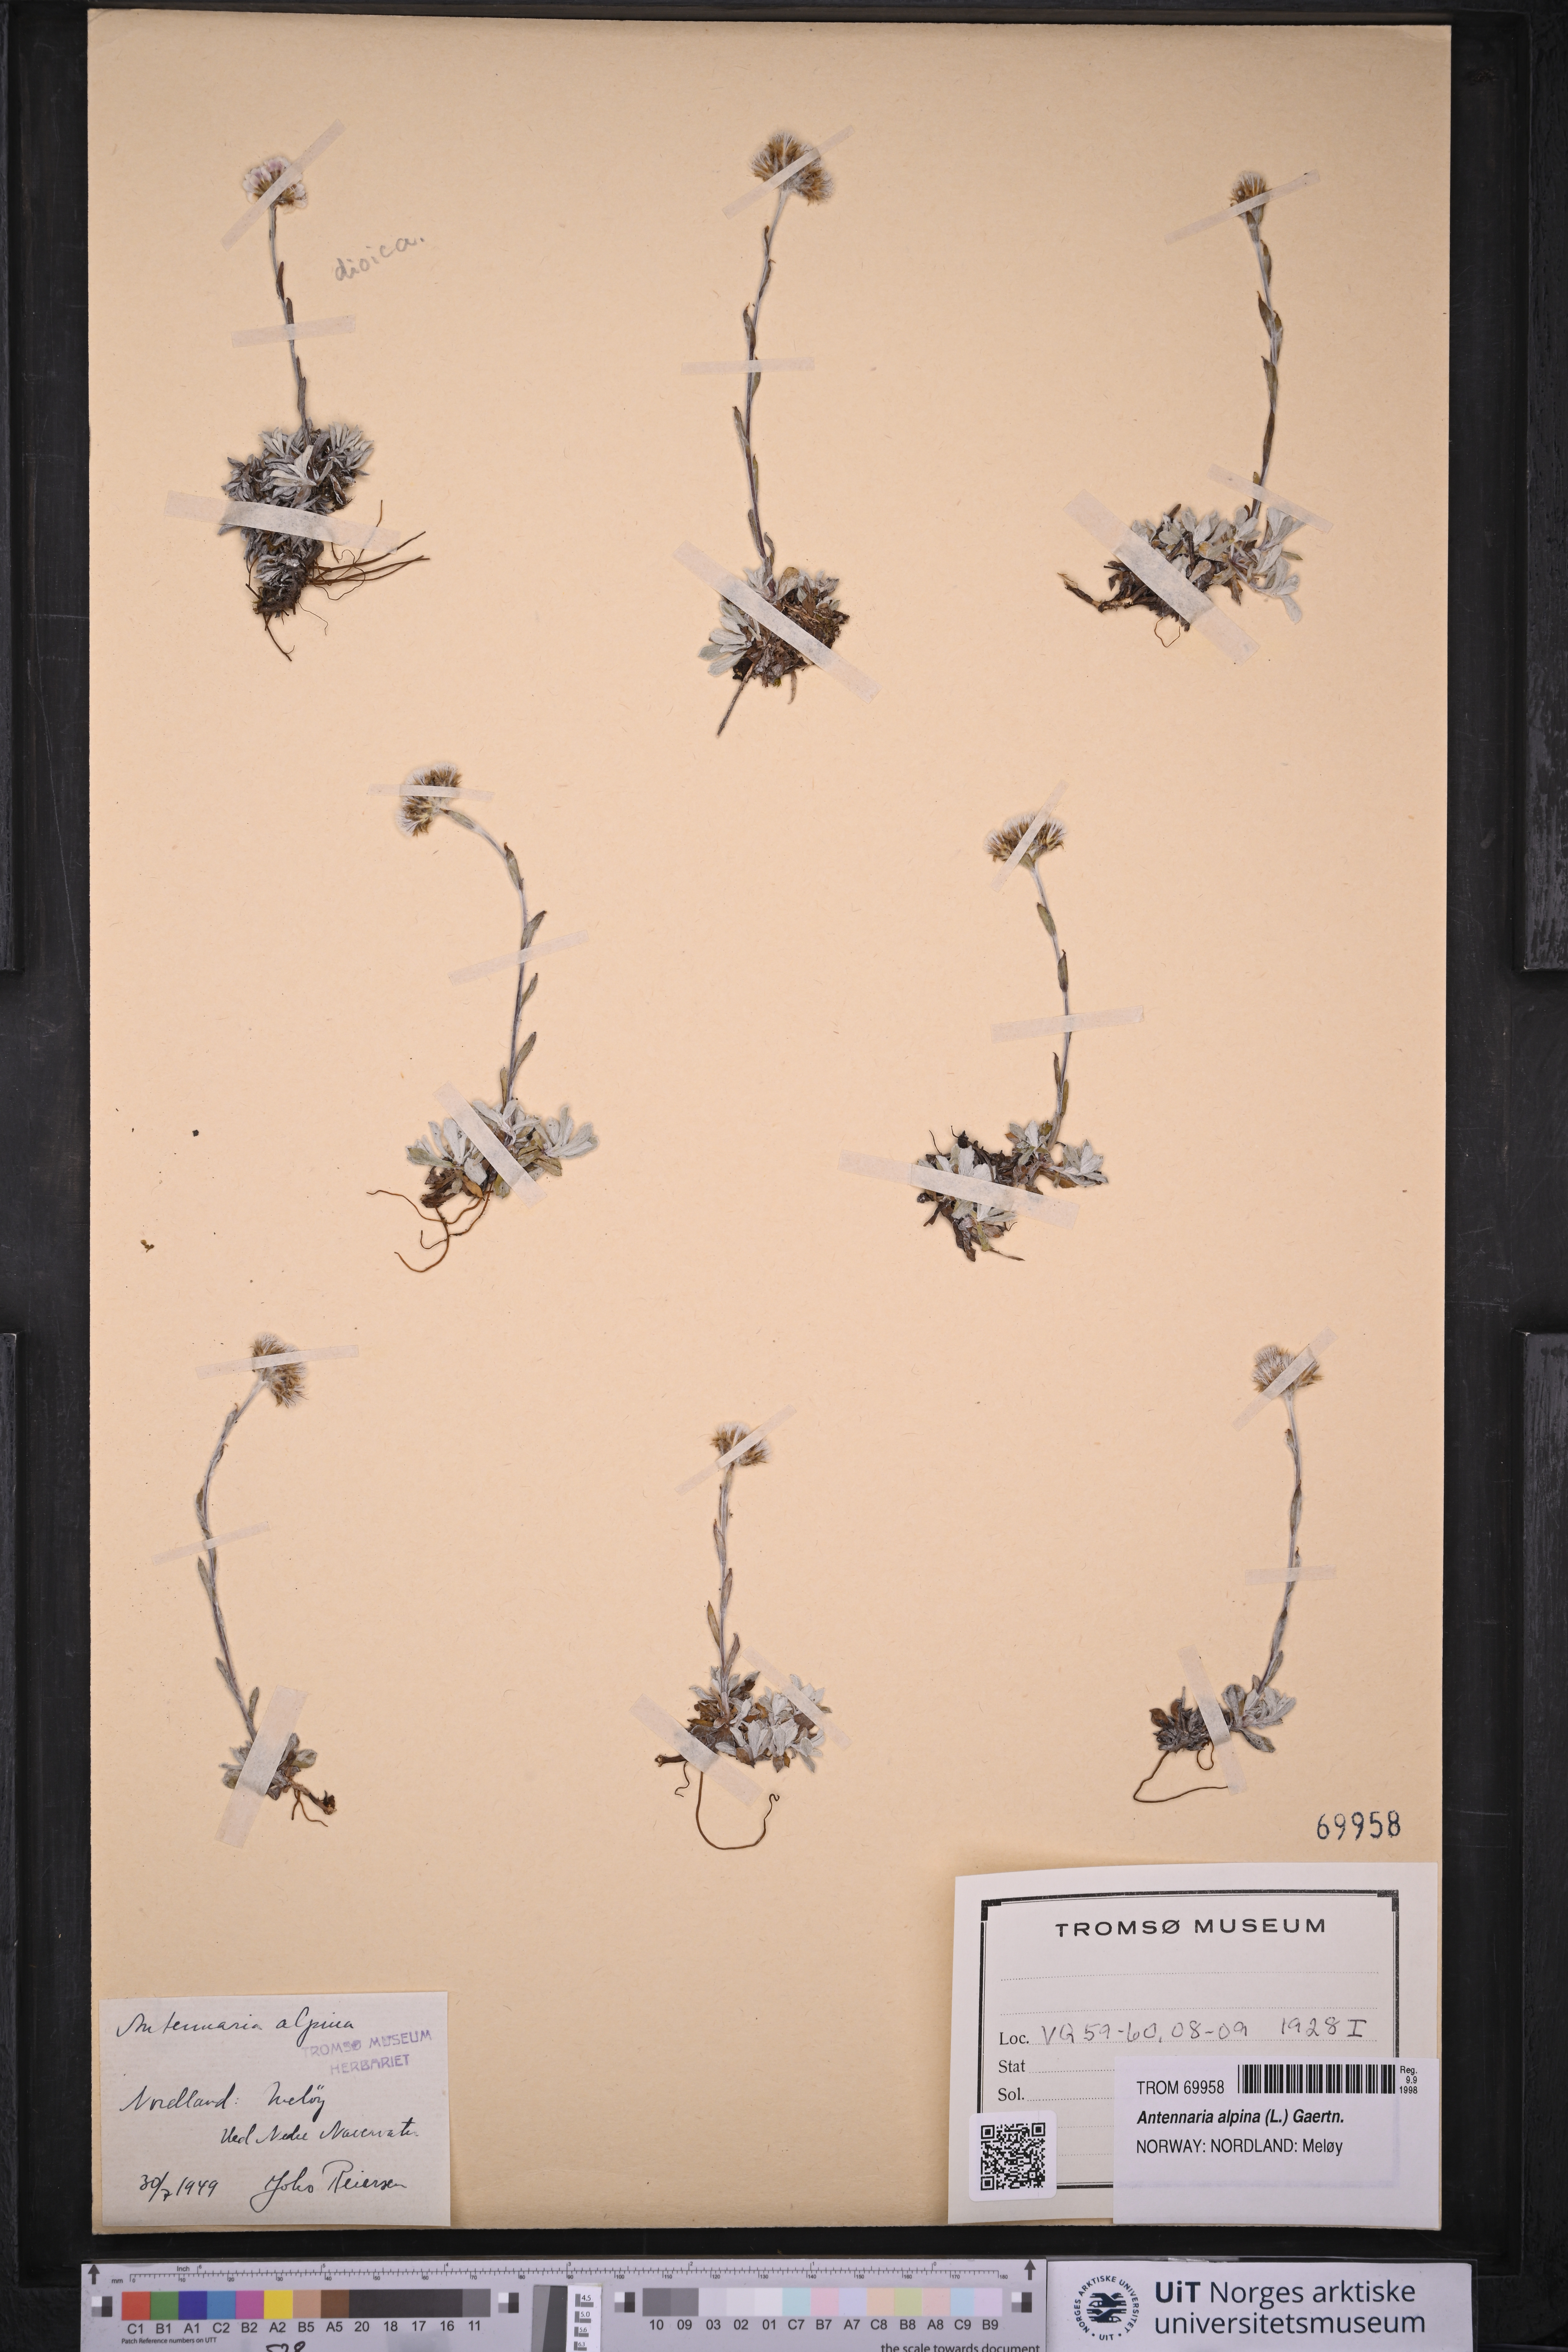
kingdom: Plantae
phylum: Tracheophyta
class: Magnoliopsida
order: Asterales
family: Asteraceae
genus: Antennaria
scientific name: Antennaria alpina
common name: Alpine pussytoes
